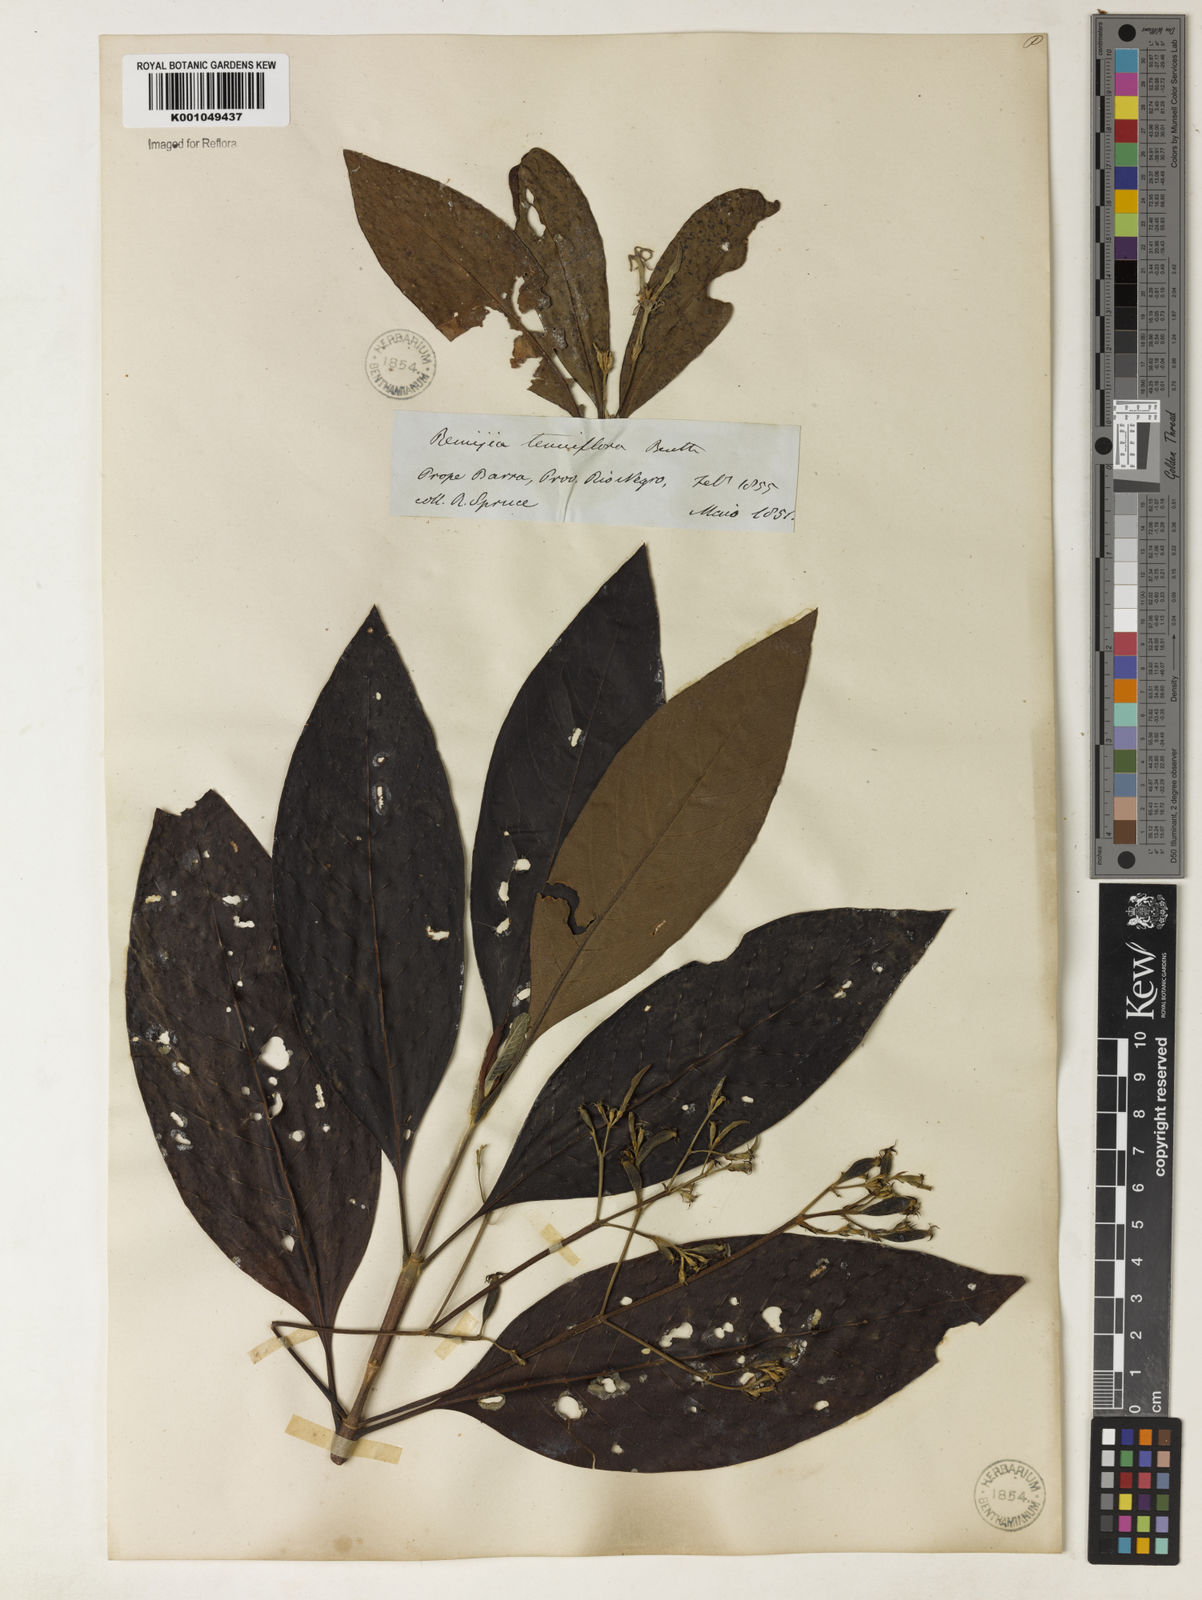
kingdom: Plantae
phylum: Tracheophyta
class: Magnoliopsida
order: Gentianales
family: Rubiaceae
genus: Remijia
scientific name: Remijia tenuiflora
